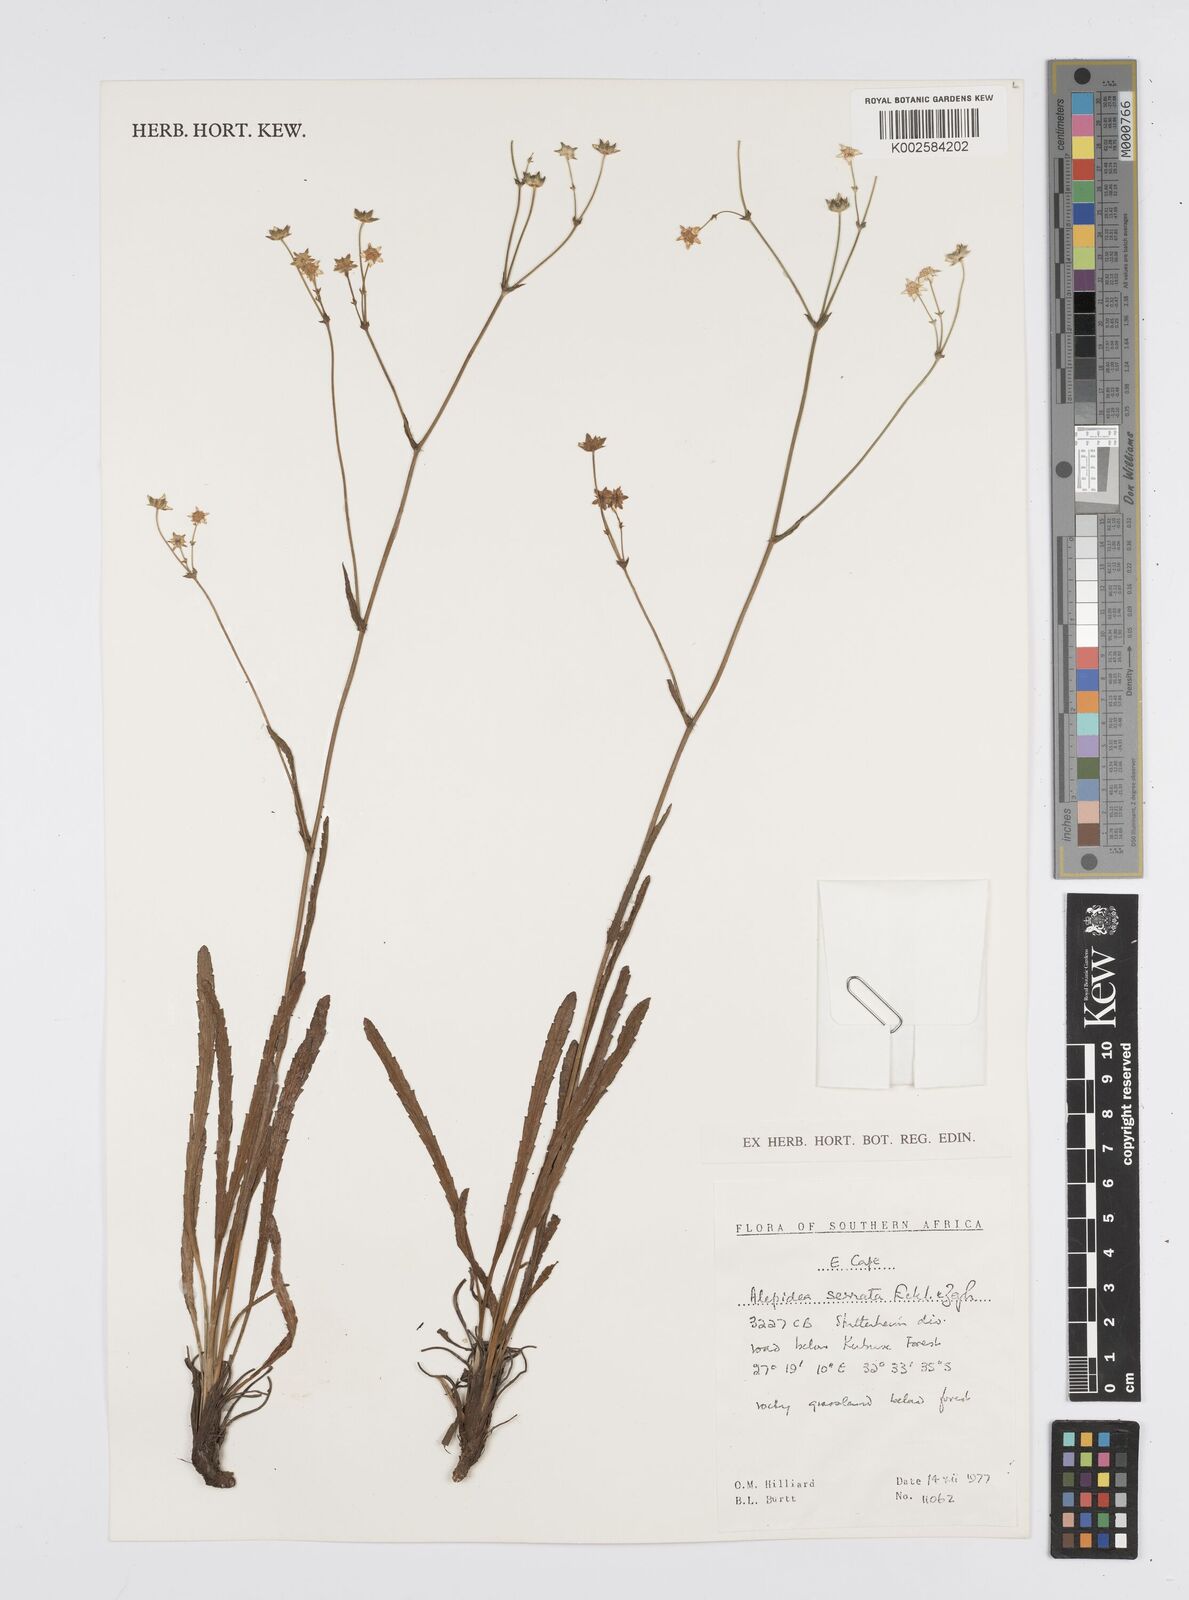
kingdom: Plantae
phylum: Tracheophyta
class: Magnoliopsida
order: Apiales
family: Apiaceae
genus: Alepidea
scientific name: Alepidea serrata
